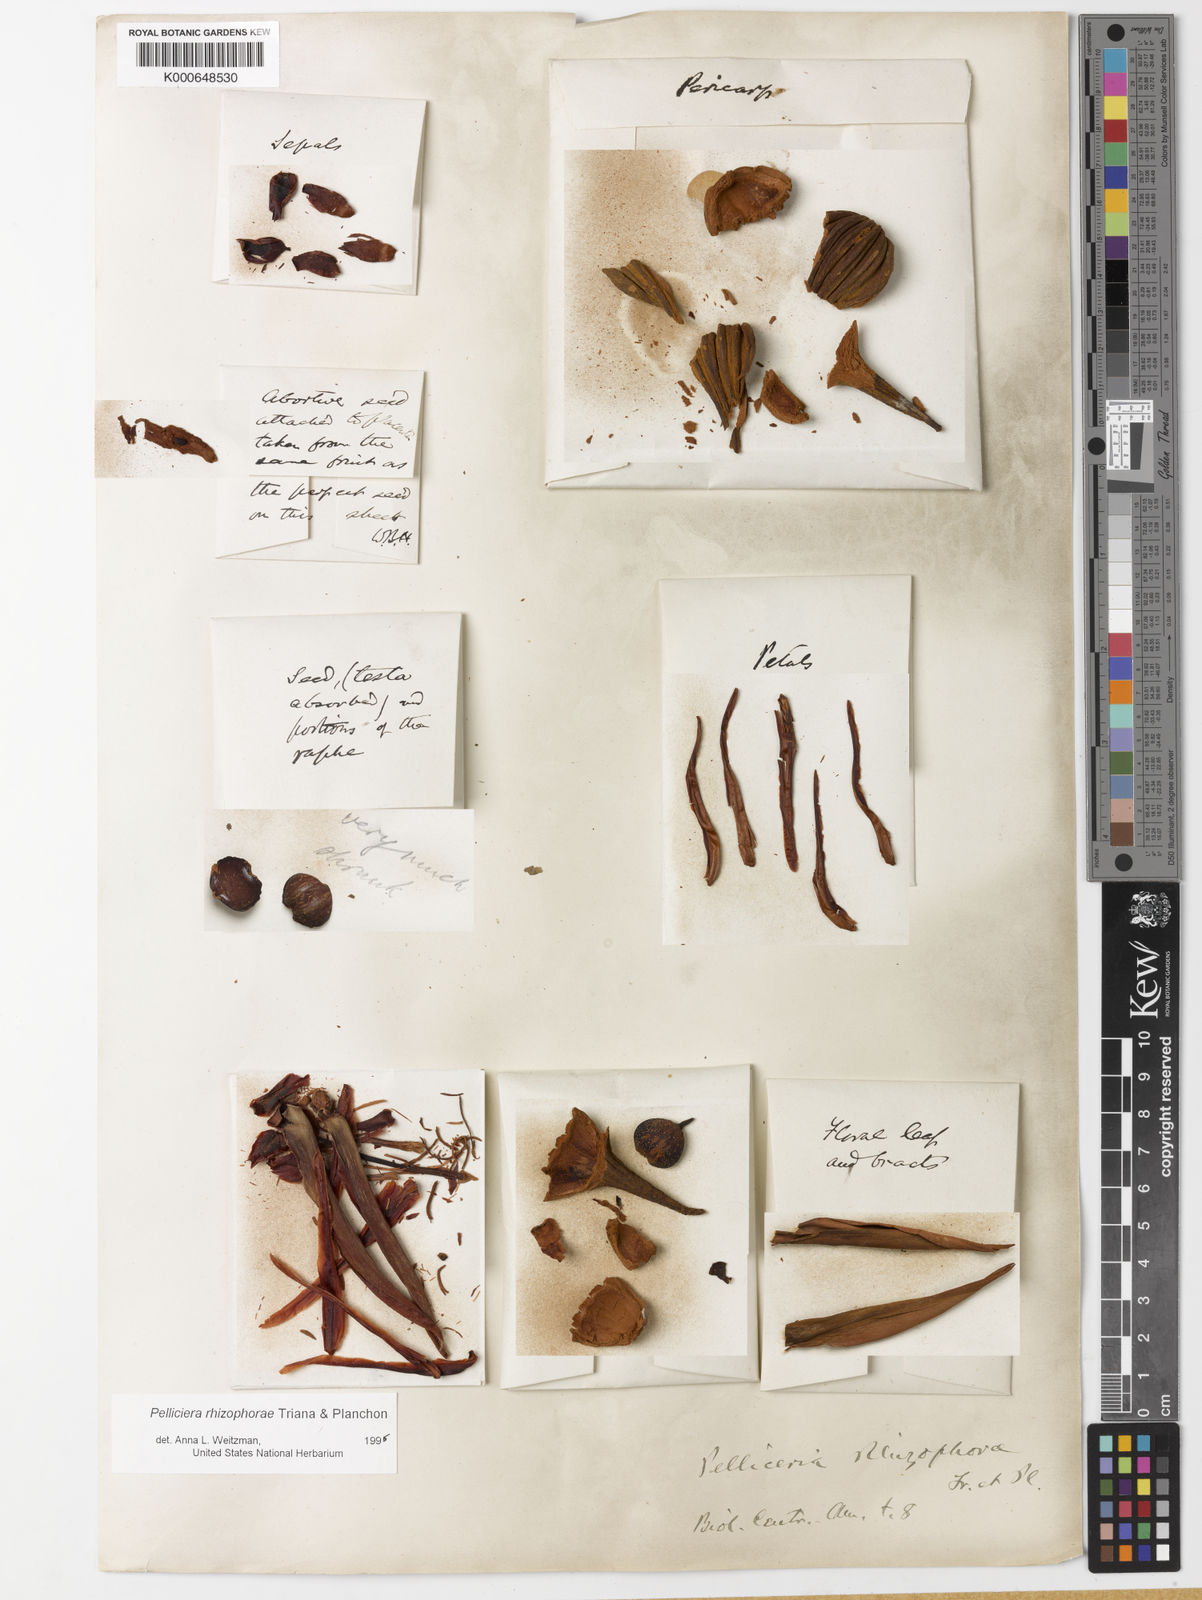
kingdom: Plantae
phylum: Tracheophyta
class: Magnoliopsida
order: Ericales
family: Tetrameristaceae
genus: Pelliciera
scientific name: Pelliciera rhizophorae
